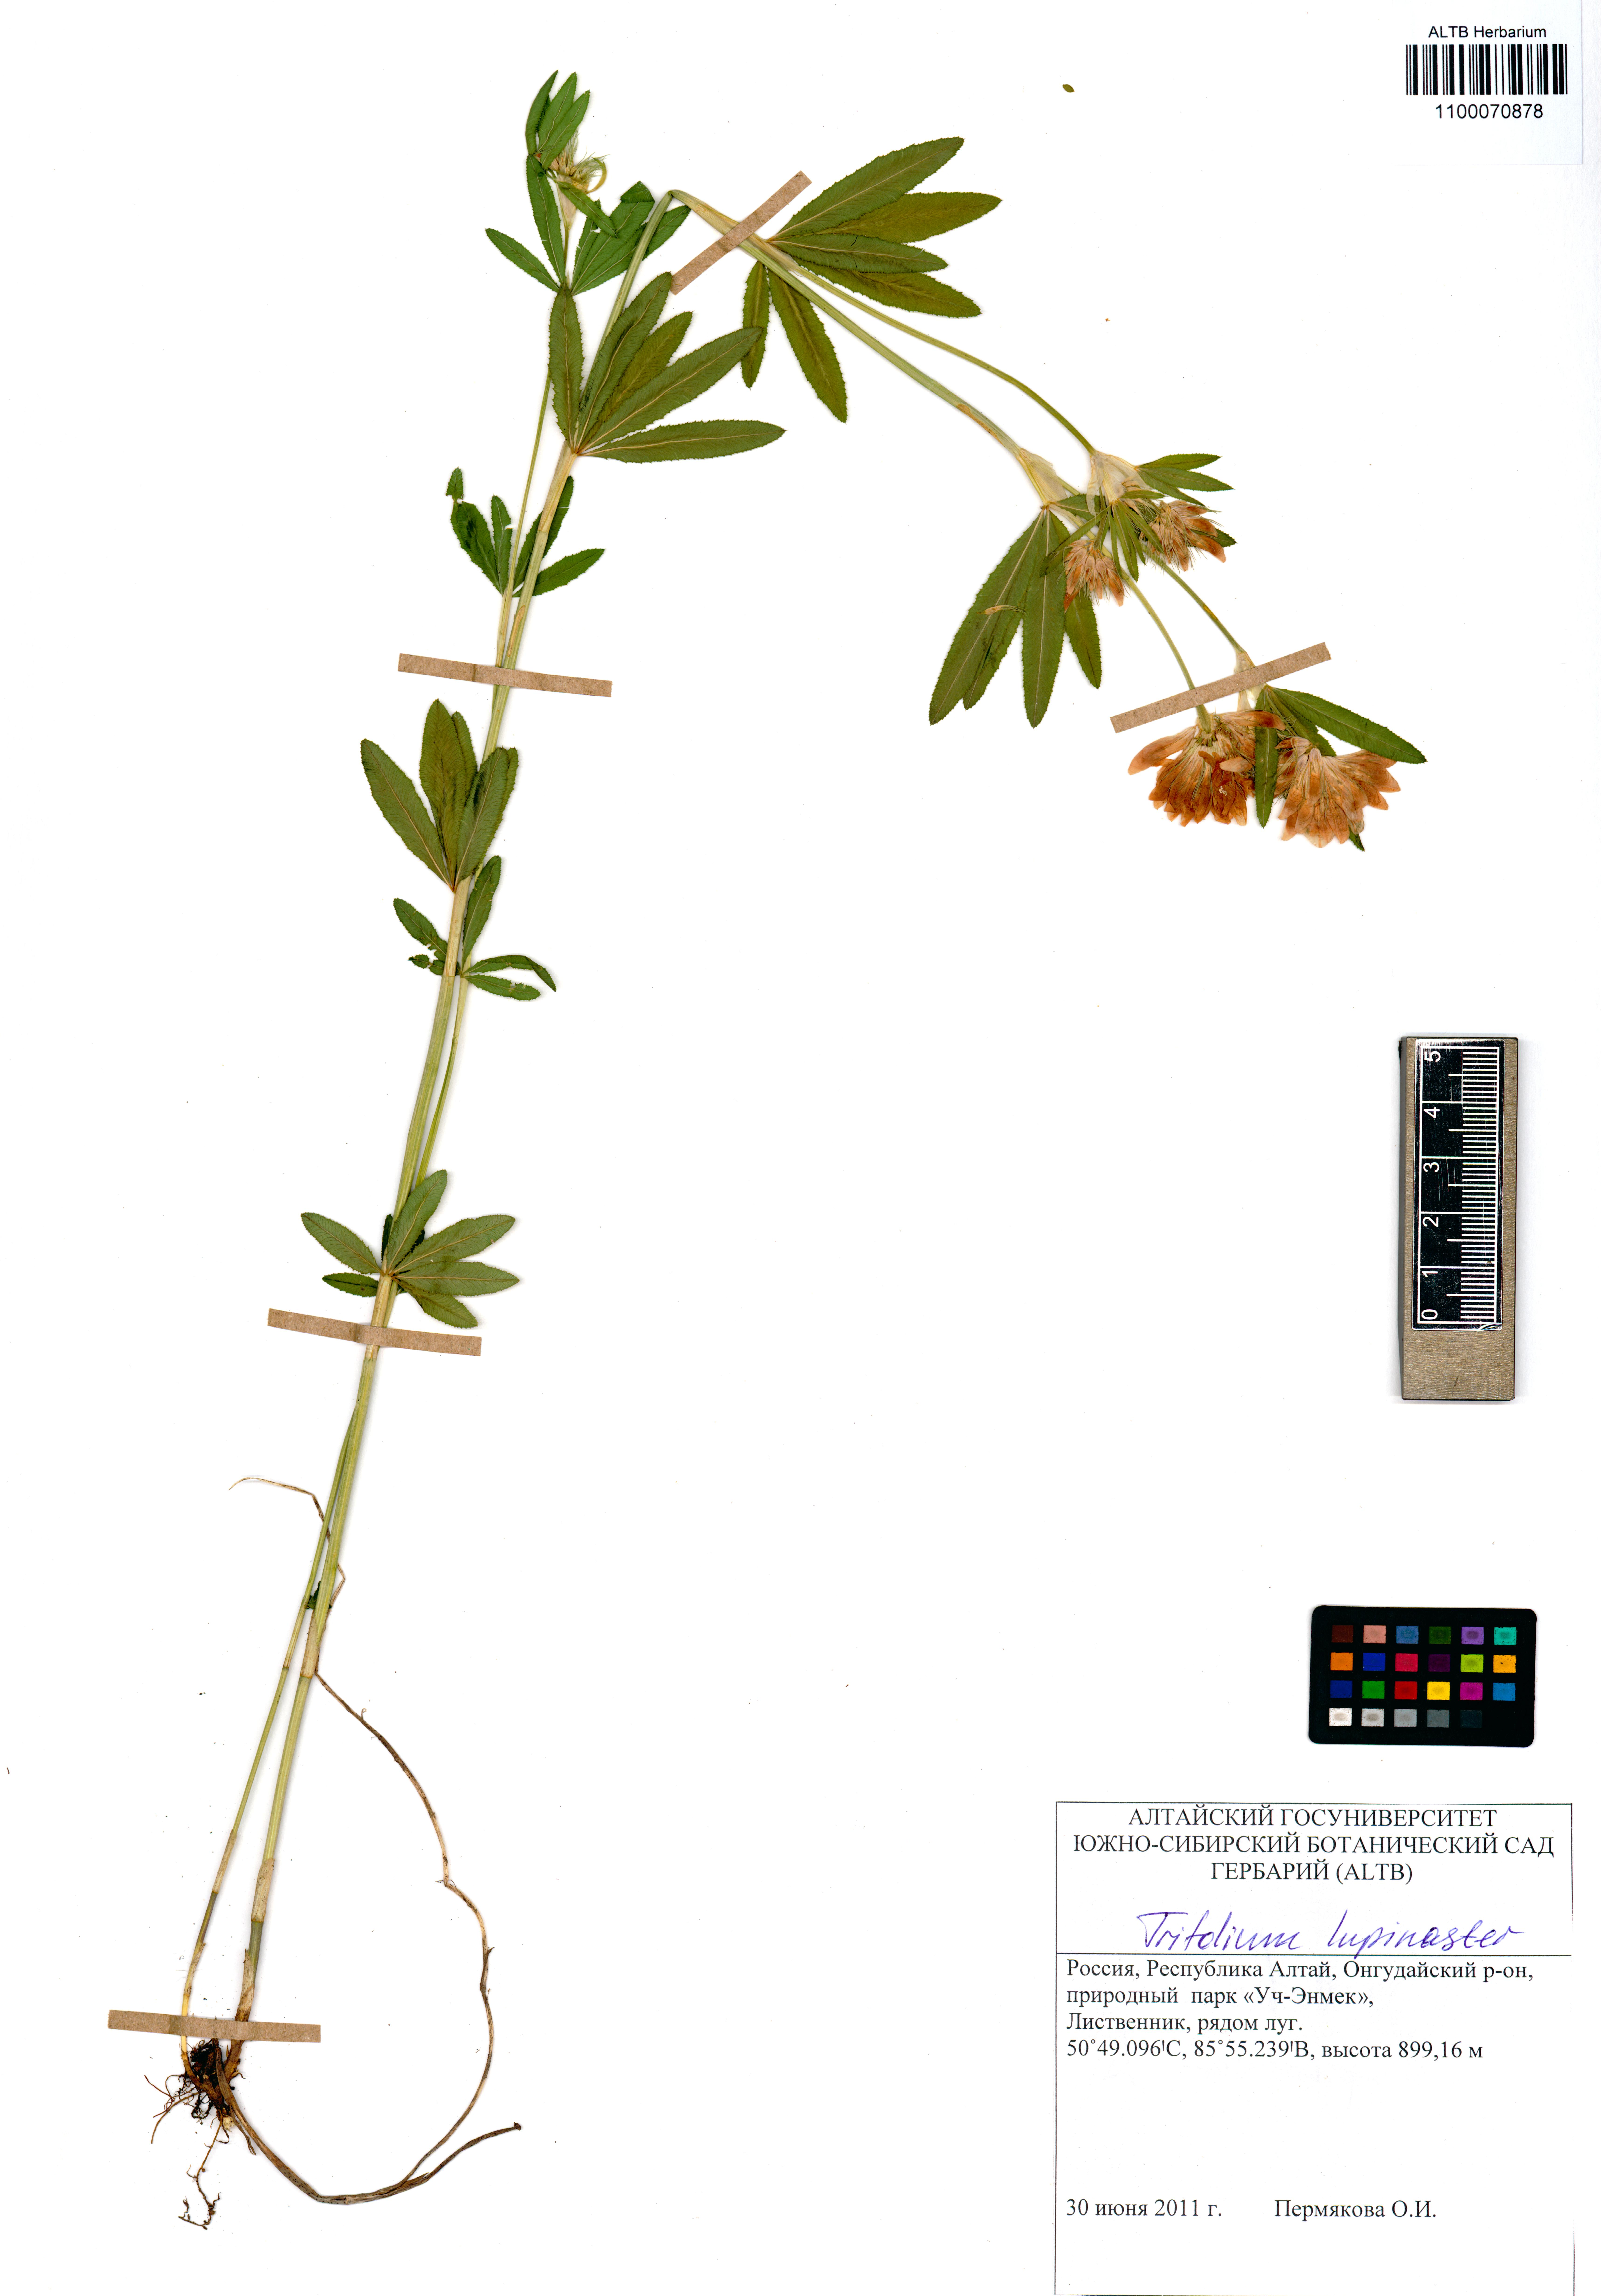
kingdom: Plantae
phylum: Tracheophyta
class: Magnoliopsida
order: Fabales
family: Fabaceae
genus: Trifolium
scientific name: Trifolium lupinaster
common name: Lupine clover
